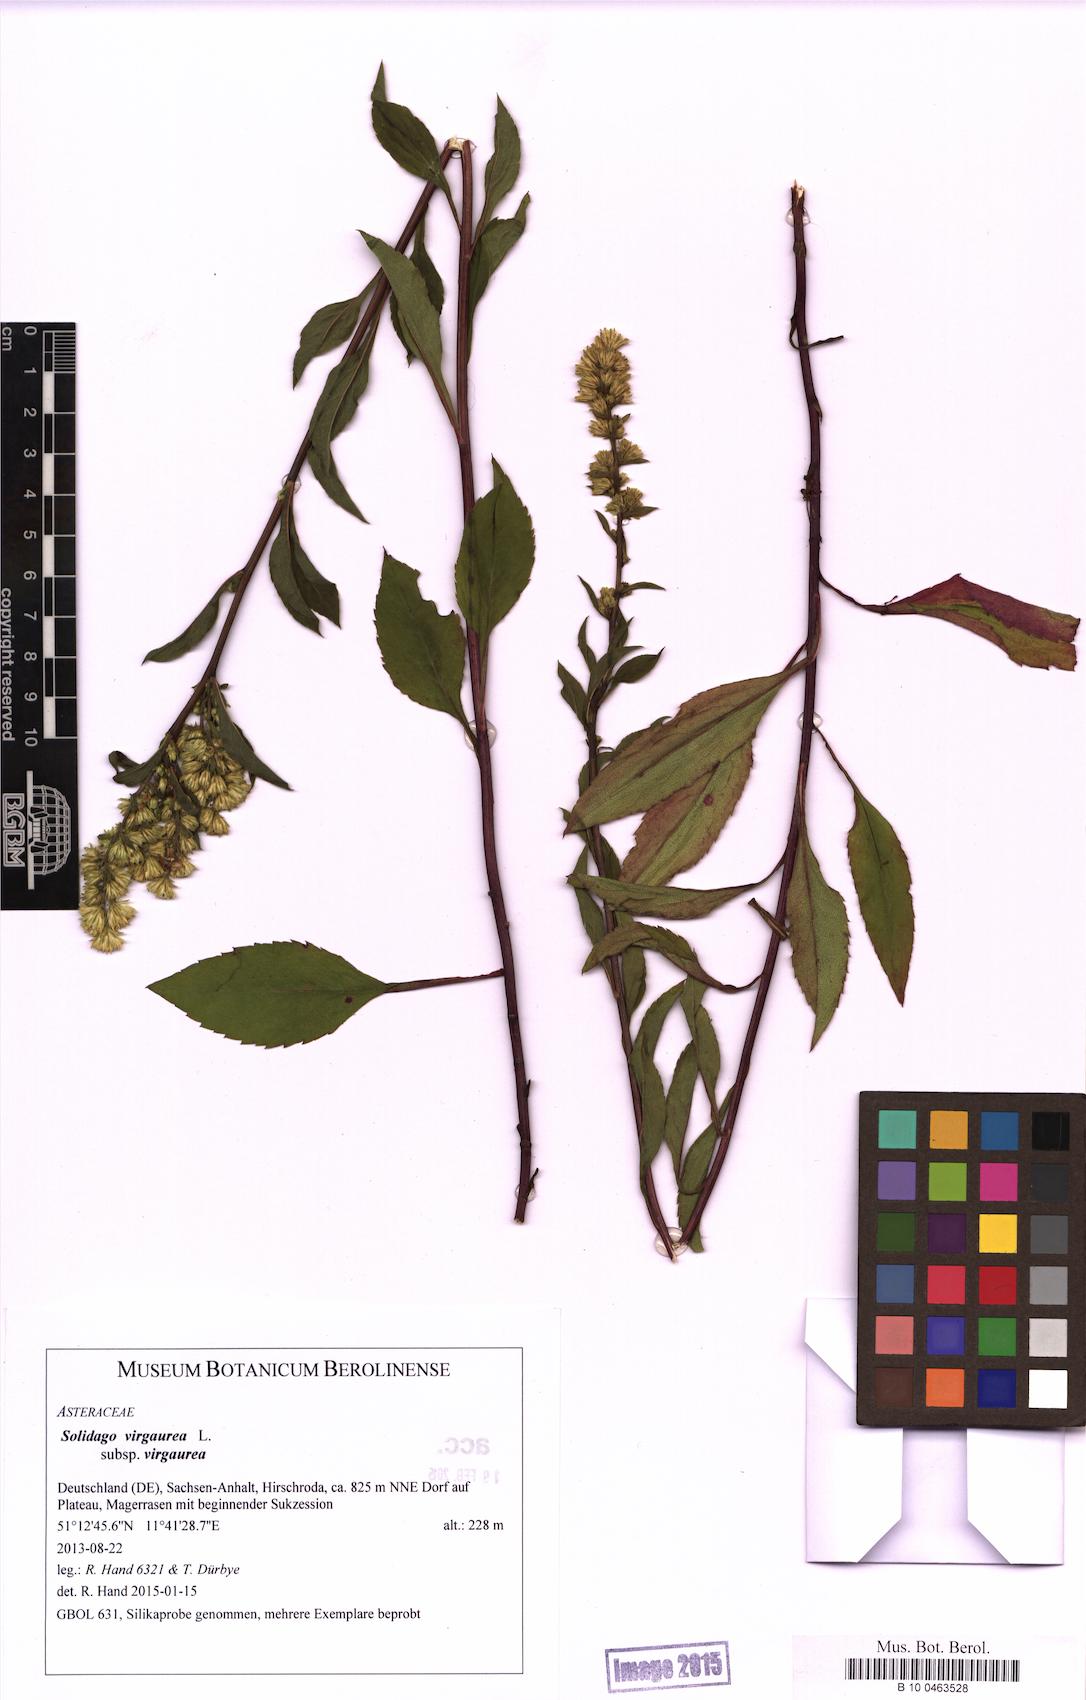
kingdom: Plantae
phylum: Tracheophyta
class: Magnoliopsida
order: Asterales
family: Asteraceae
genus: Solidago
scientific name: Solidago virgaurea
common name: Goldenrod
